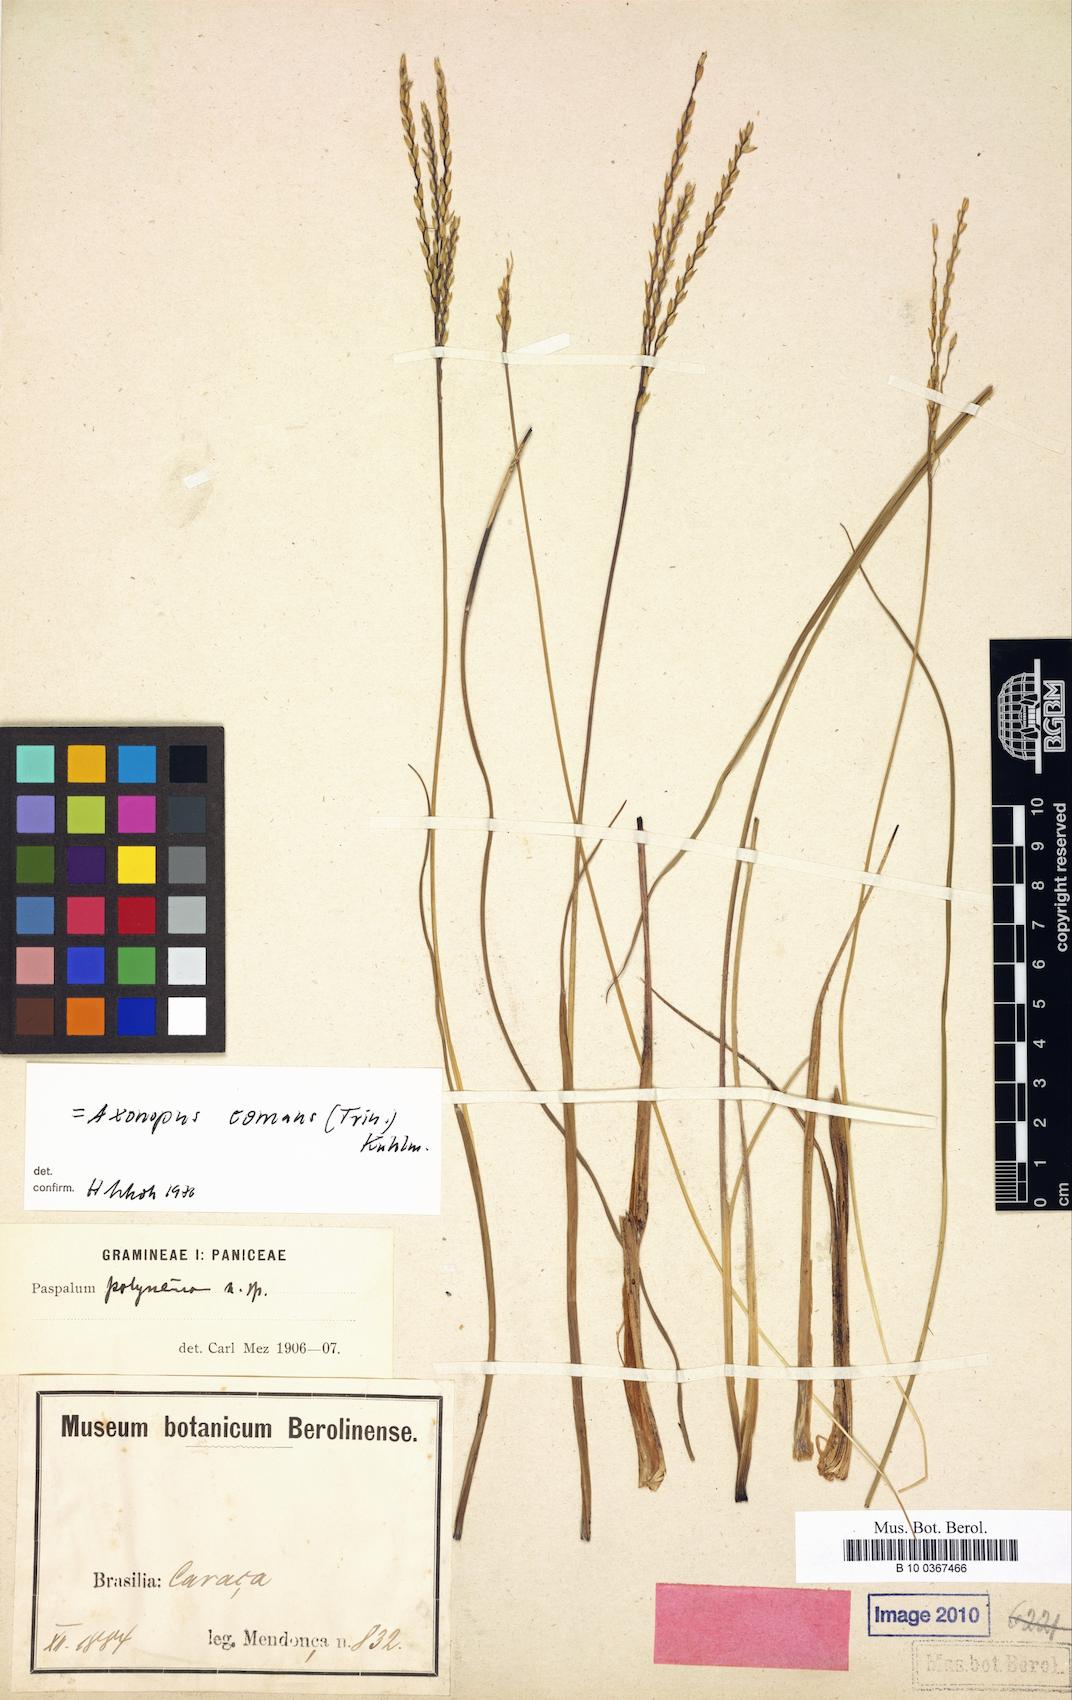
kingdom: Plantae
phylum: Tracheophyta
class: Liliopsida
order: Poales
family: Poaceae
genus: Axonopus
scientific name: Axonopus siccus
